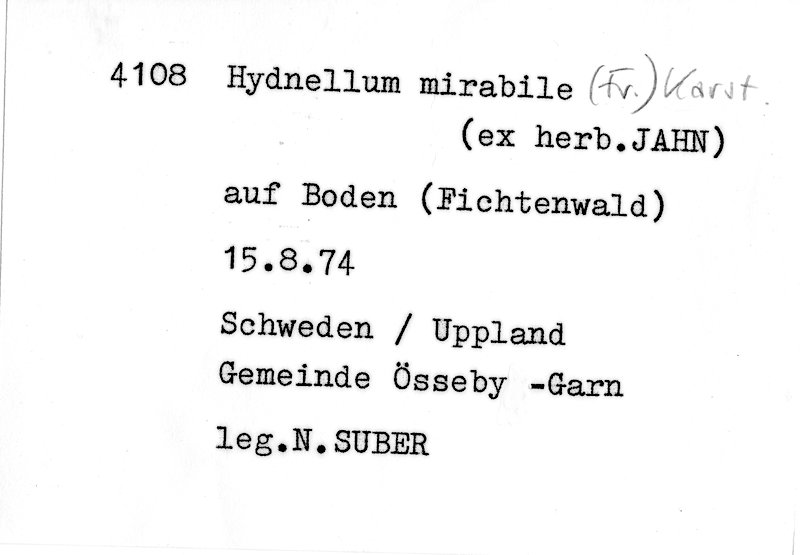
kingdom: Fungi
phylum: Basidiomycota
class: Agaricomycetes
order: Thelephorales
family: Bankeraceae
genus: Hydnellum
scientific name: Hydnellum mirabile
